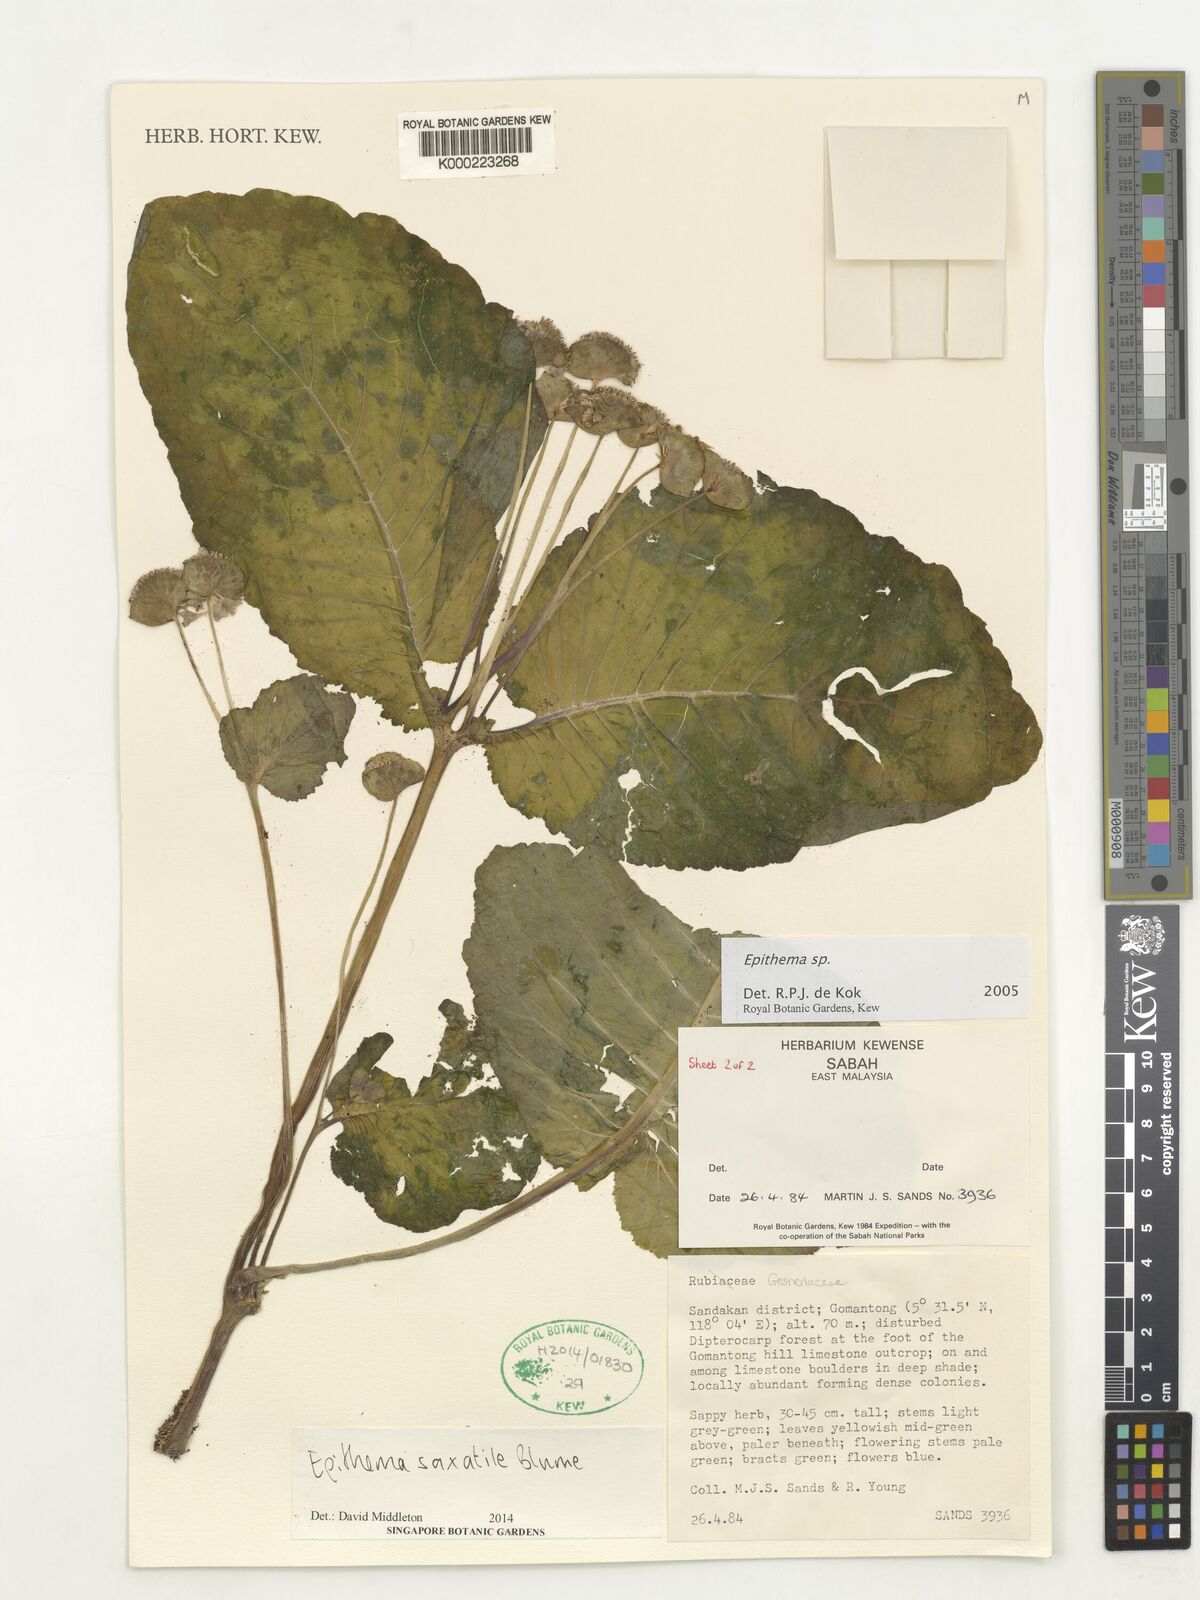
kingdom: Plantae
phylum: Tracheophyta
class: Magnoliopsida
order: Lamiales
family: Gesneriaceae
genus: Epithema
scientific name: Epithema saxatile
